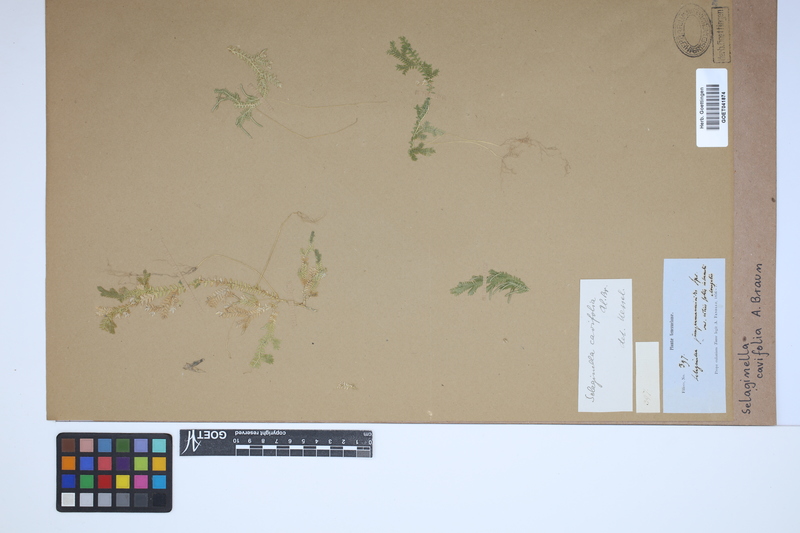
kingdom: Plantae
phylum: Tracheophyta
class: Lycopodiopsida
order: Selaginellales
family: Selaginellaceae
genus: Selaginella
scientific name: Selaginella cavifolia
